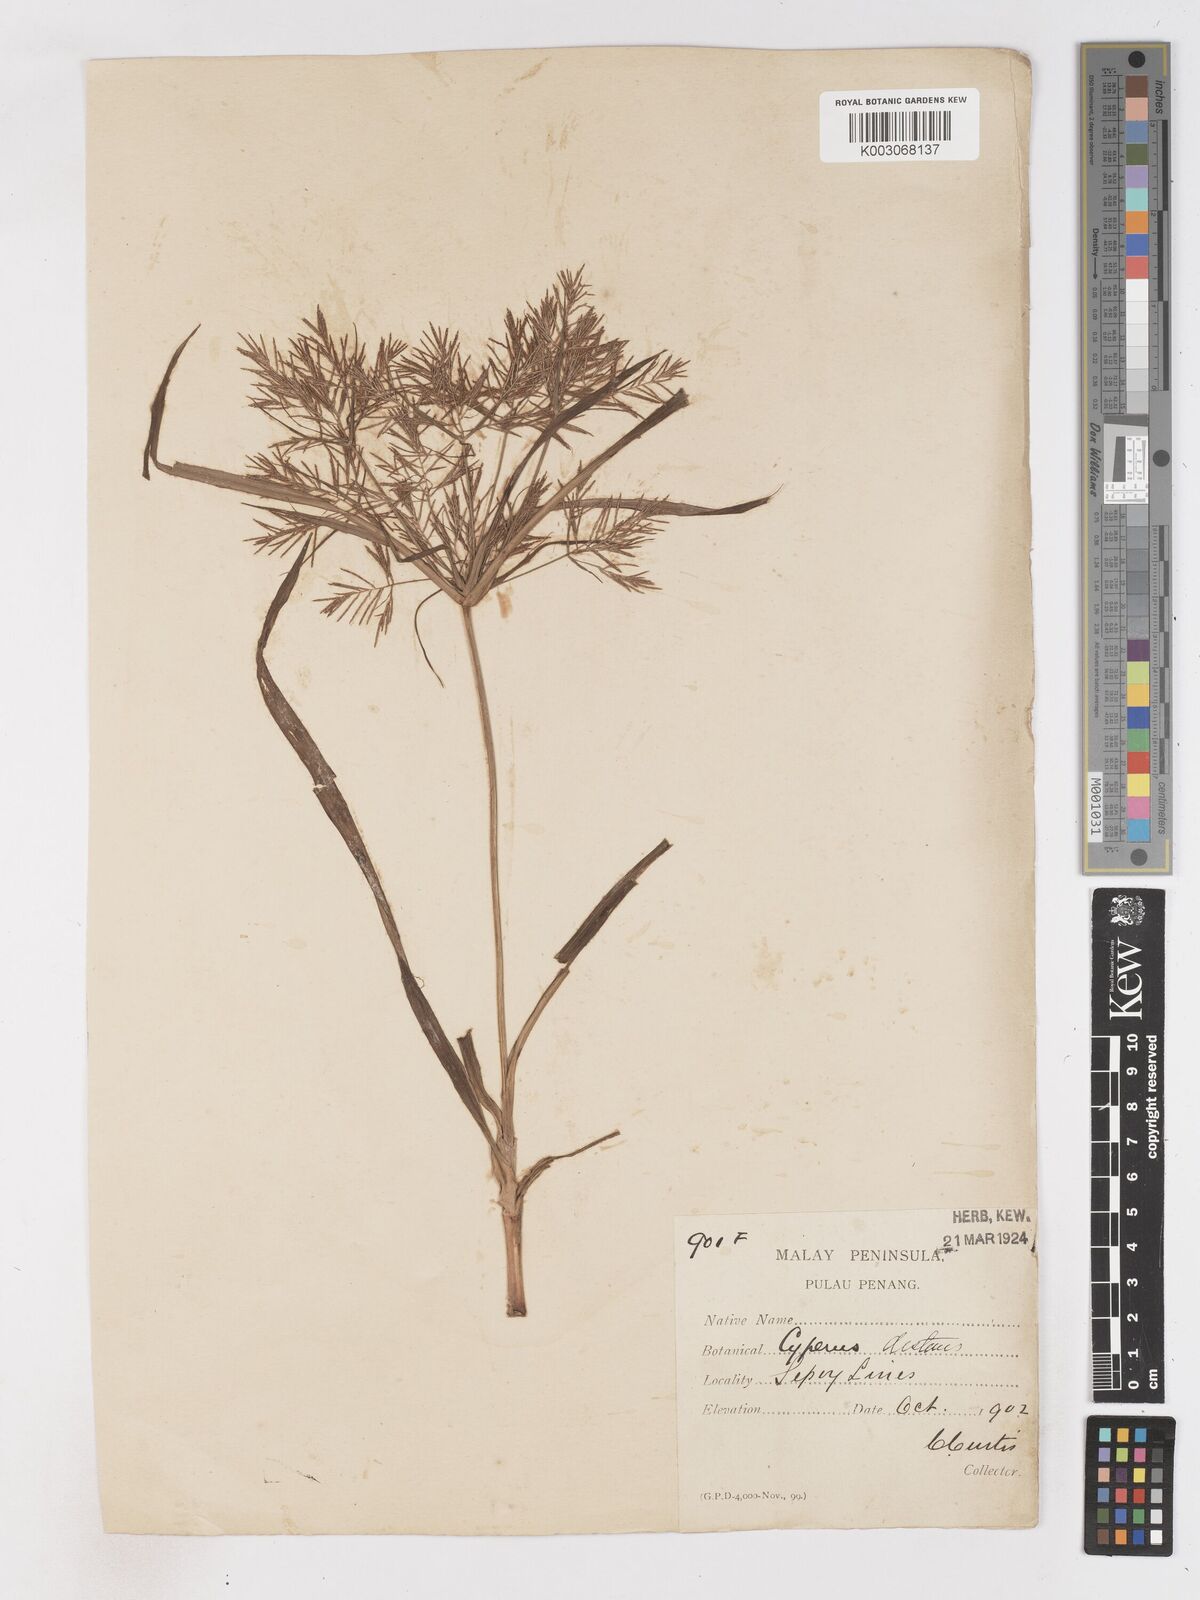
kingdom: Plantae
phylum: Tracheophyta
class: Liliopsida
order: Poales
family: Cyperaceae
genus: Cyperus
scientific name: Cyperus distans
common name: Slender cyperus
